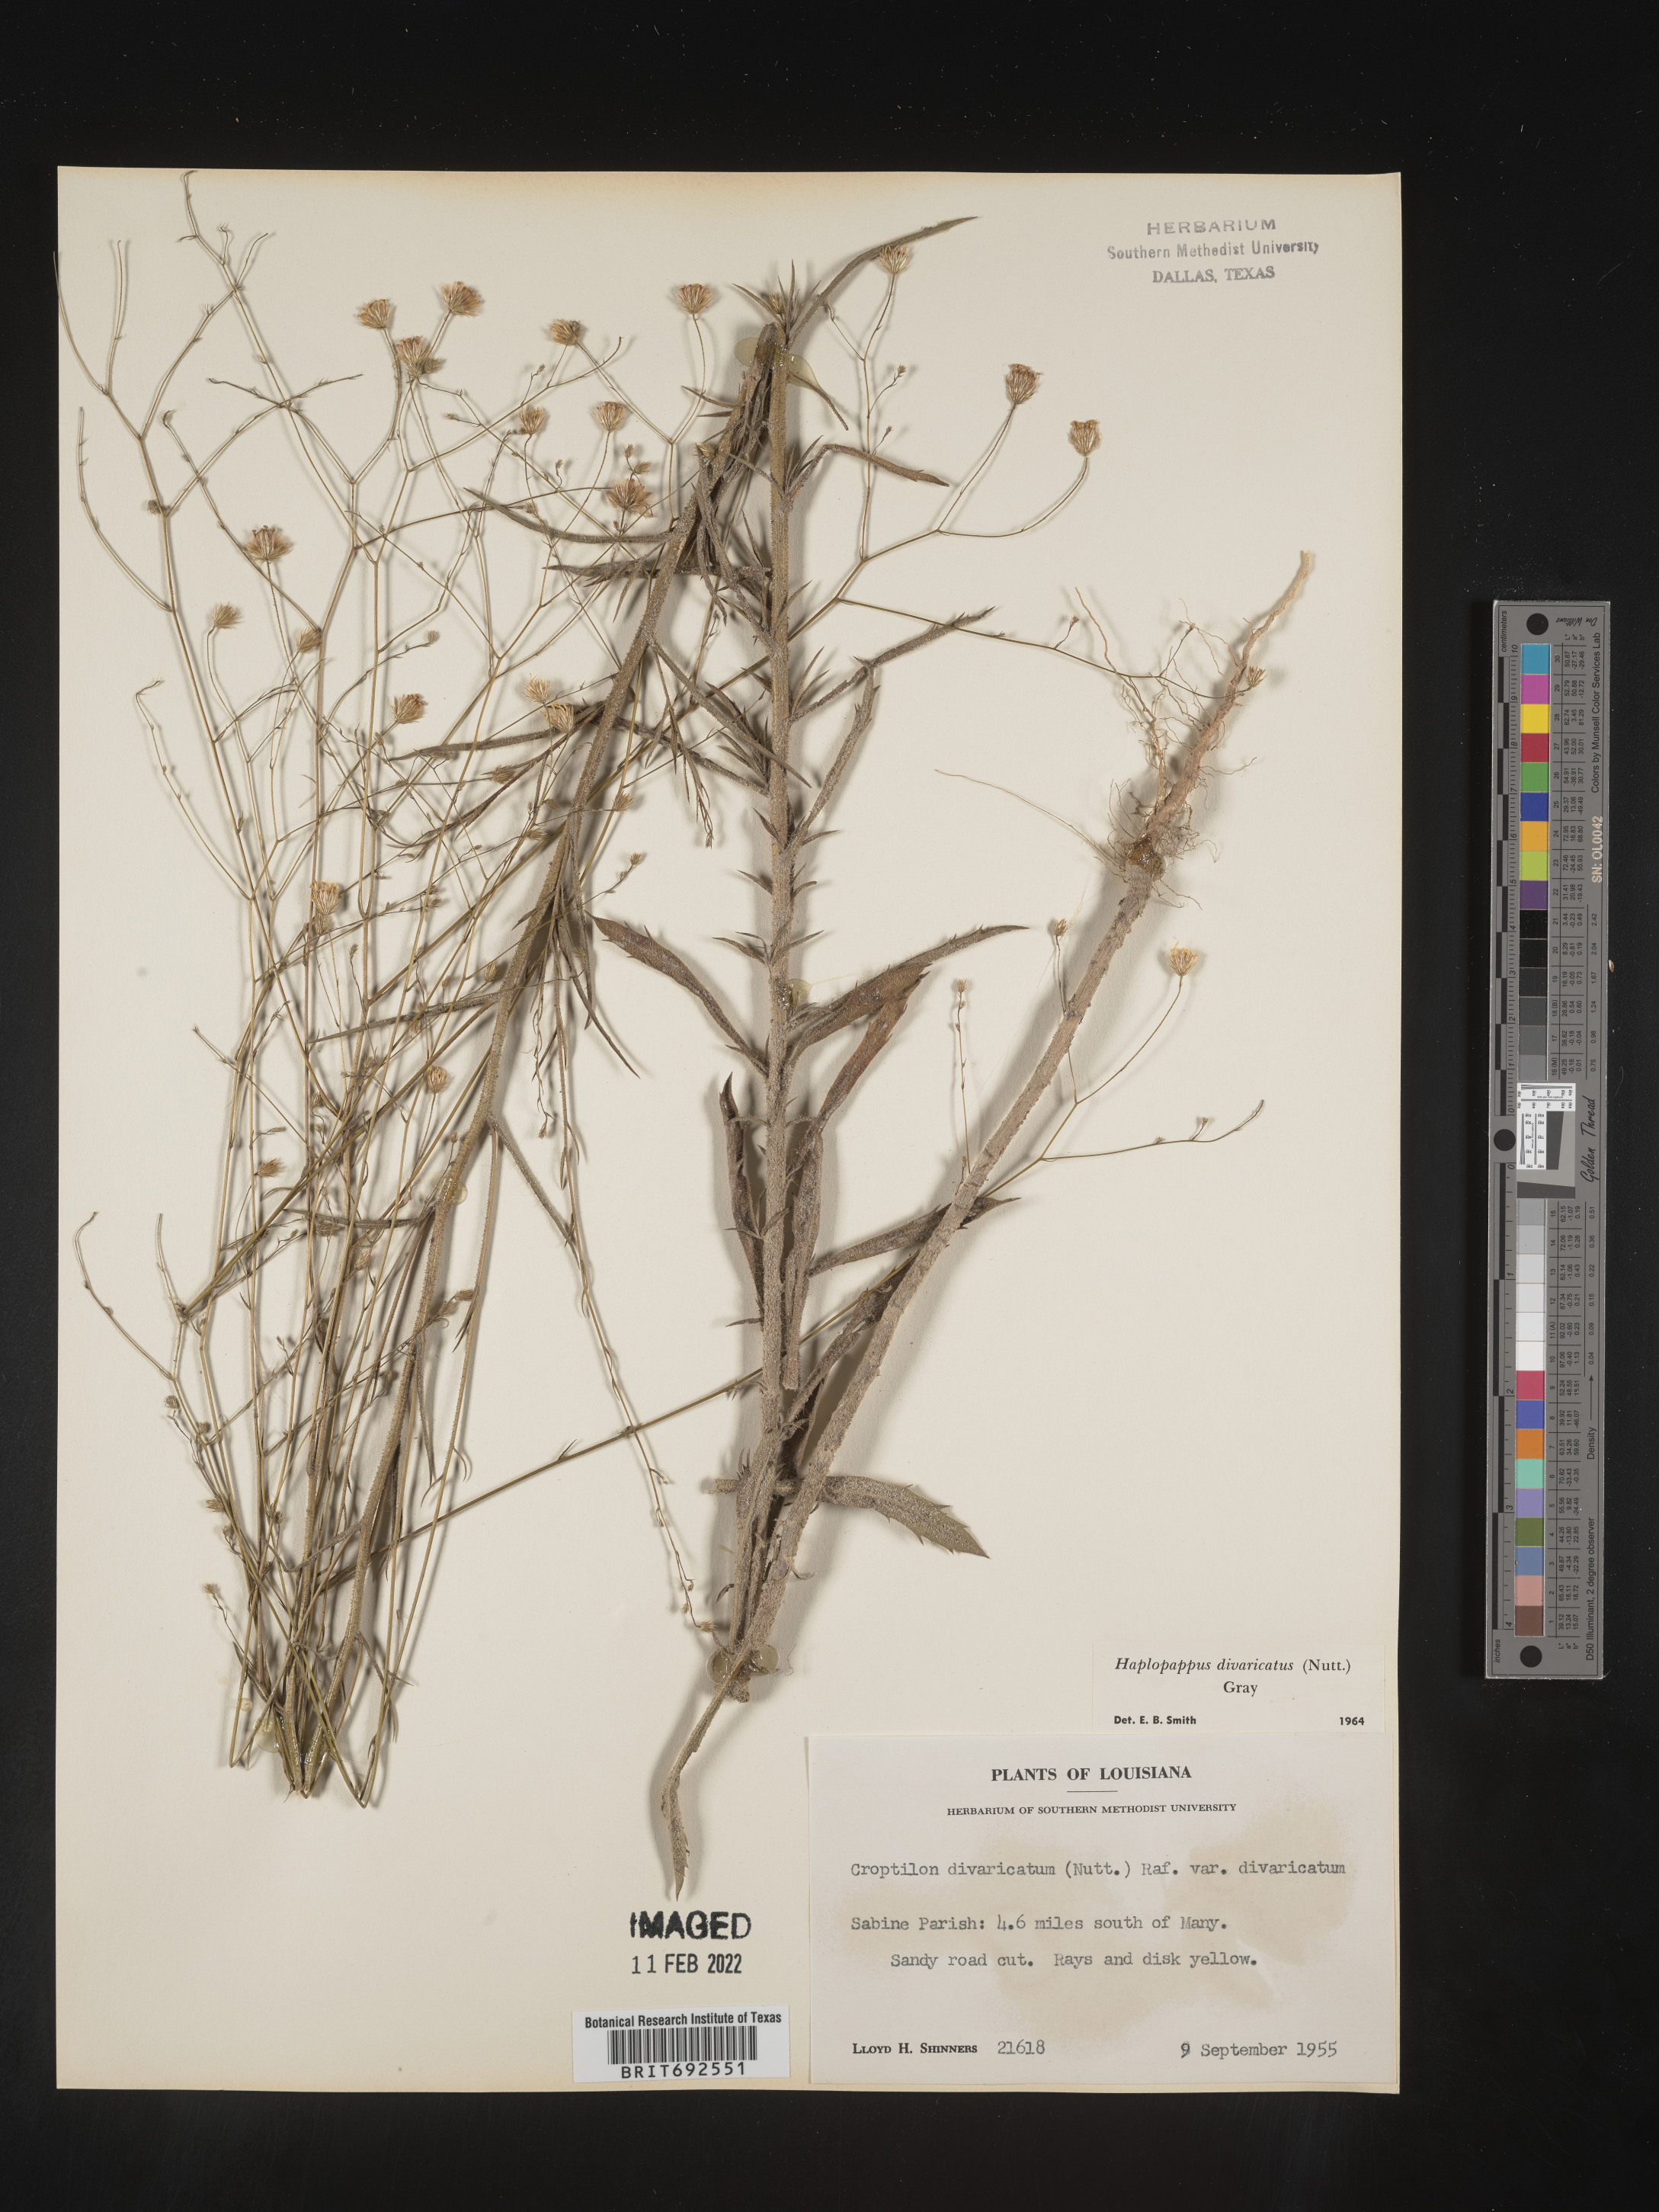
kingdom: Plantae
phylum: Tracheophyta
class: Magnoliopsida
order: Asterales
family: Asteraceae
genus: Croptilon
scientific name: Croptilon divaricatum
